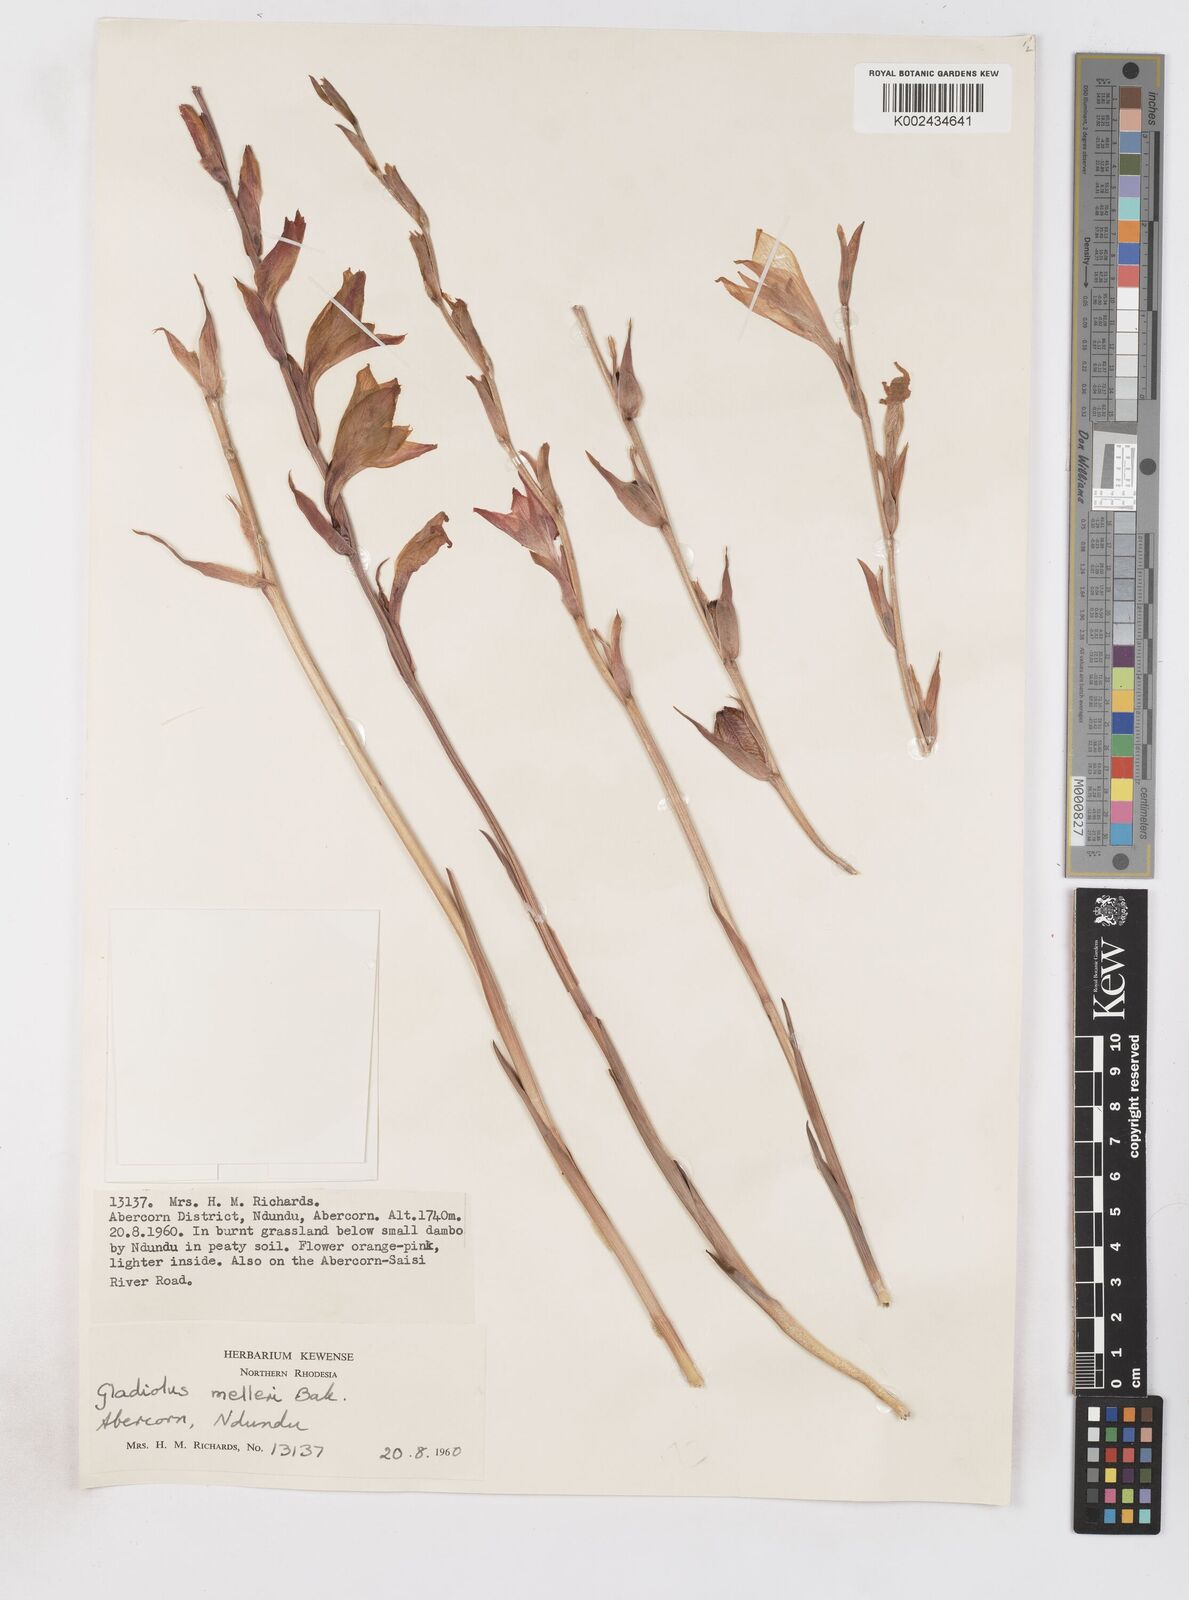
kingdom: Plantae
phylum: Tracheophyta
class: Liliopsida
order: Asparagales
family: Iridaceae
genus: Gladiolus
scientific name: Gladiolus melleri
